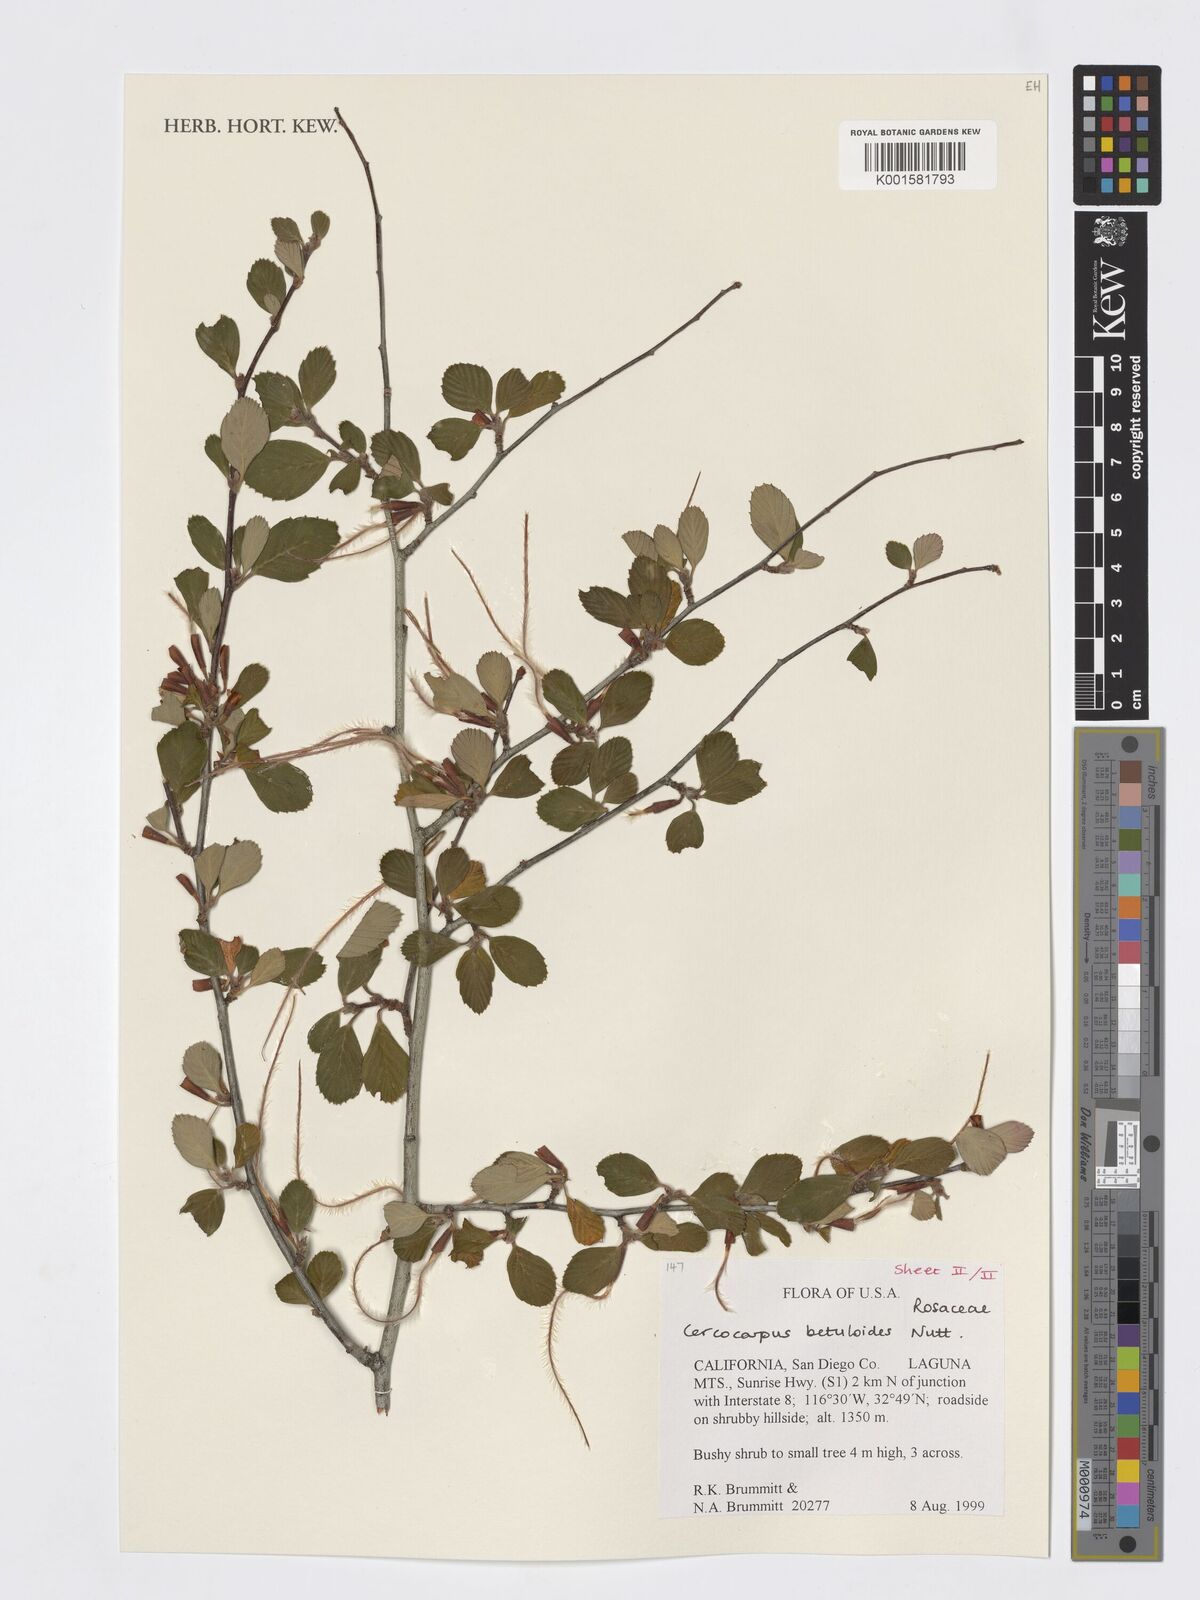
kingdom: Plantae
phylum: Tracheophyta
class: Magnoliopsida
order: Rosales
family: Rosaceae
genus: Cercocarpus
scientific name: Cercocarpus betuloides
